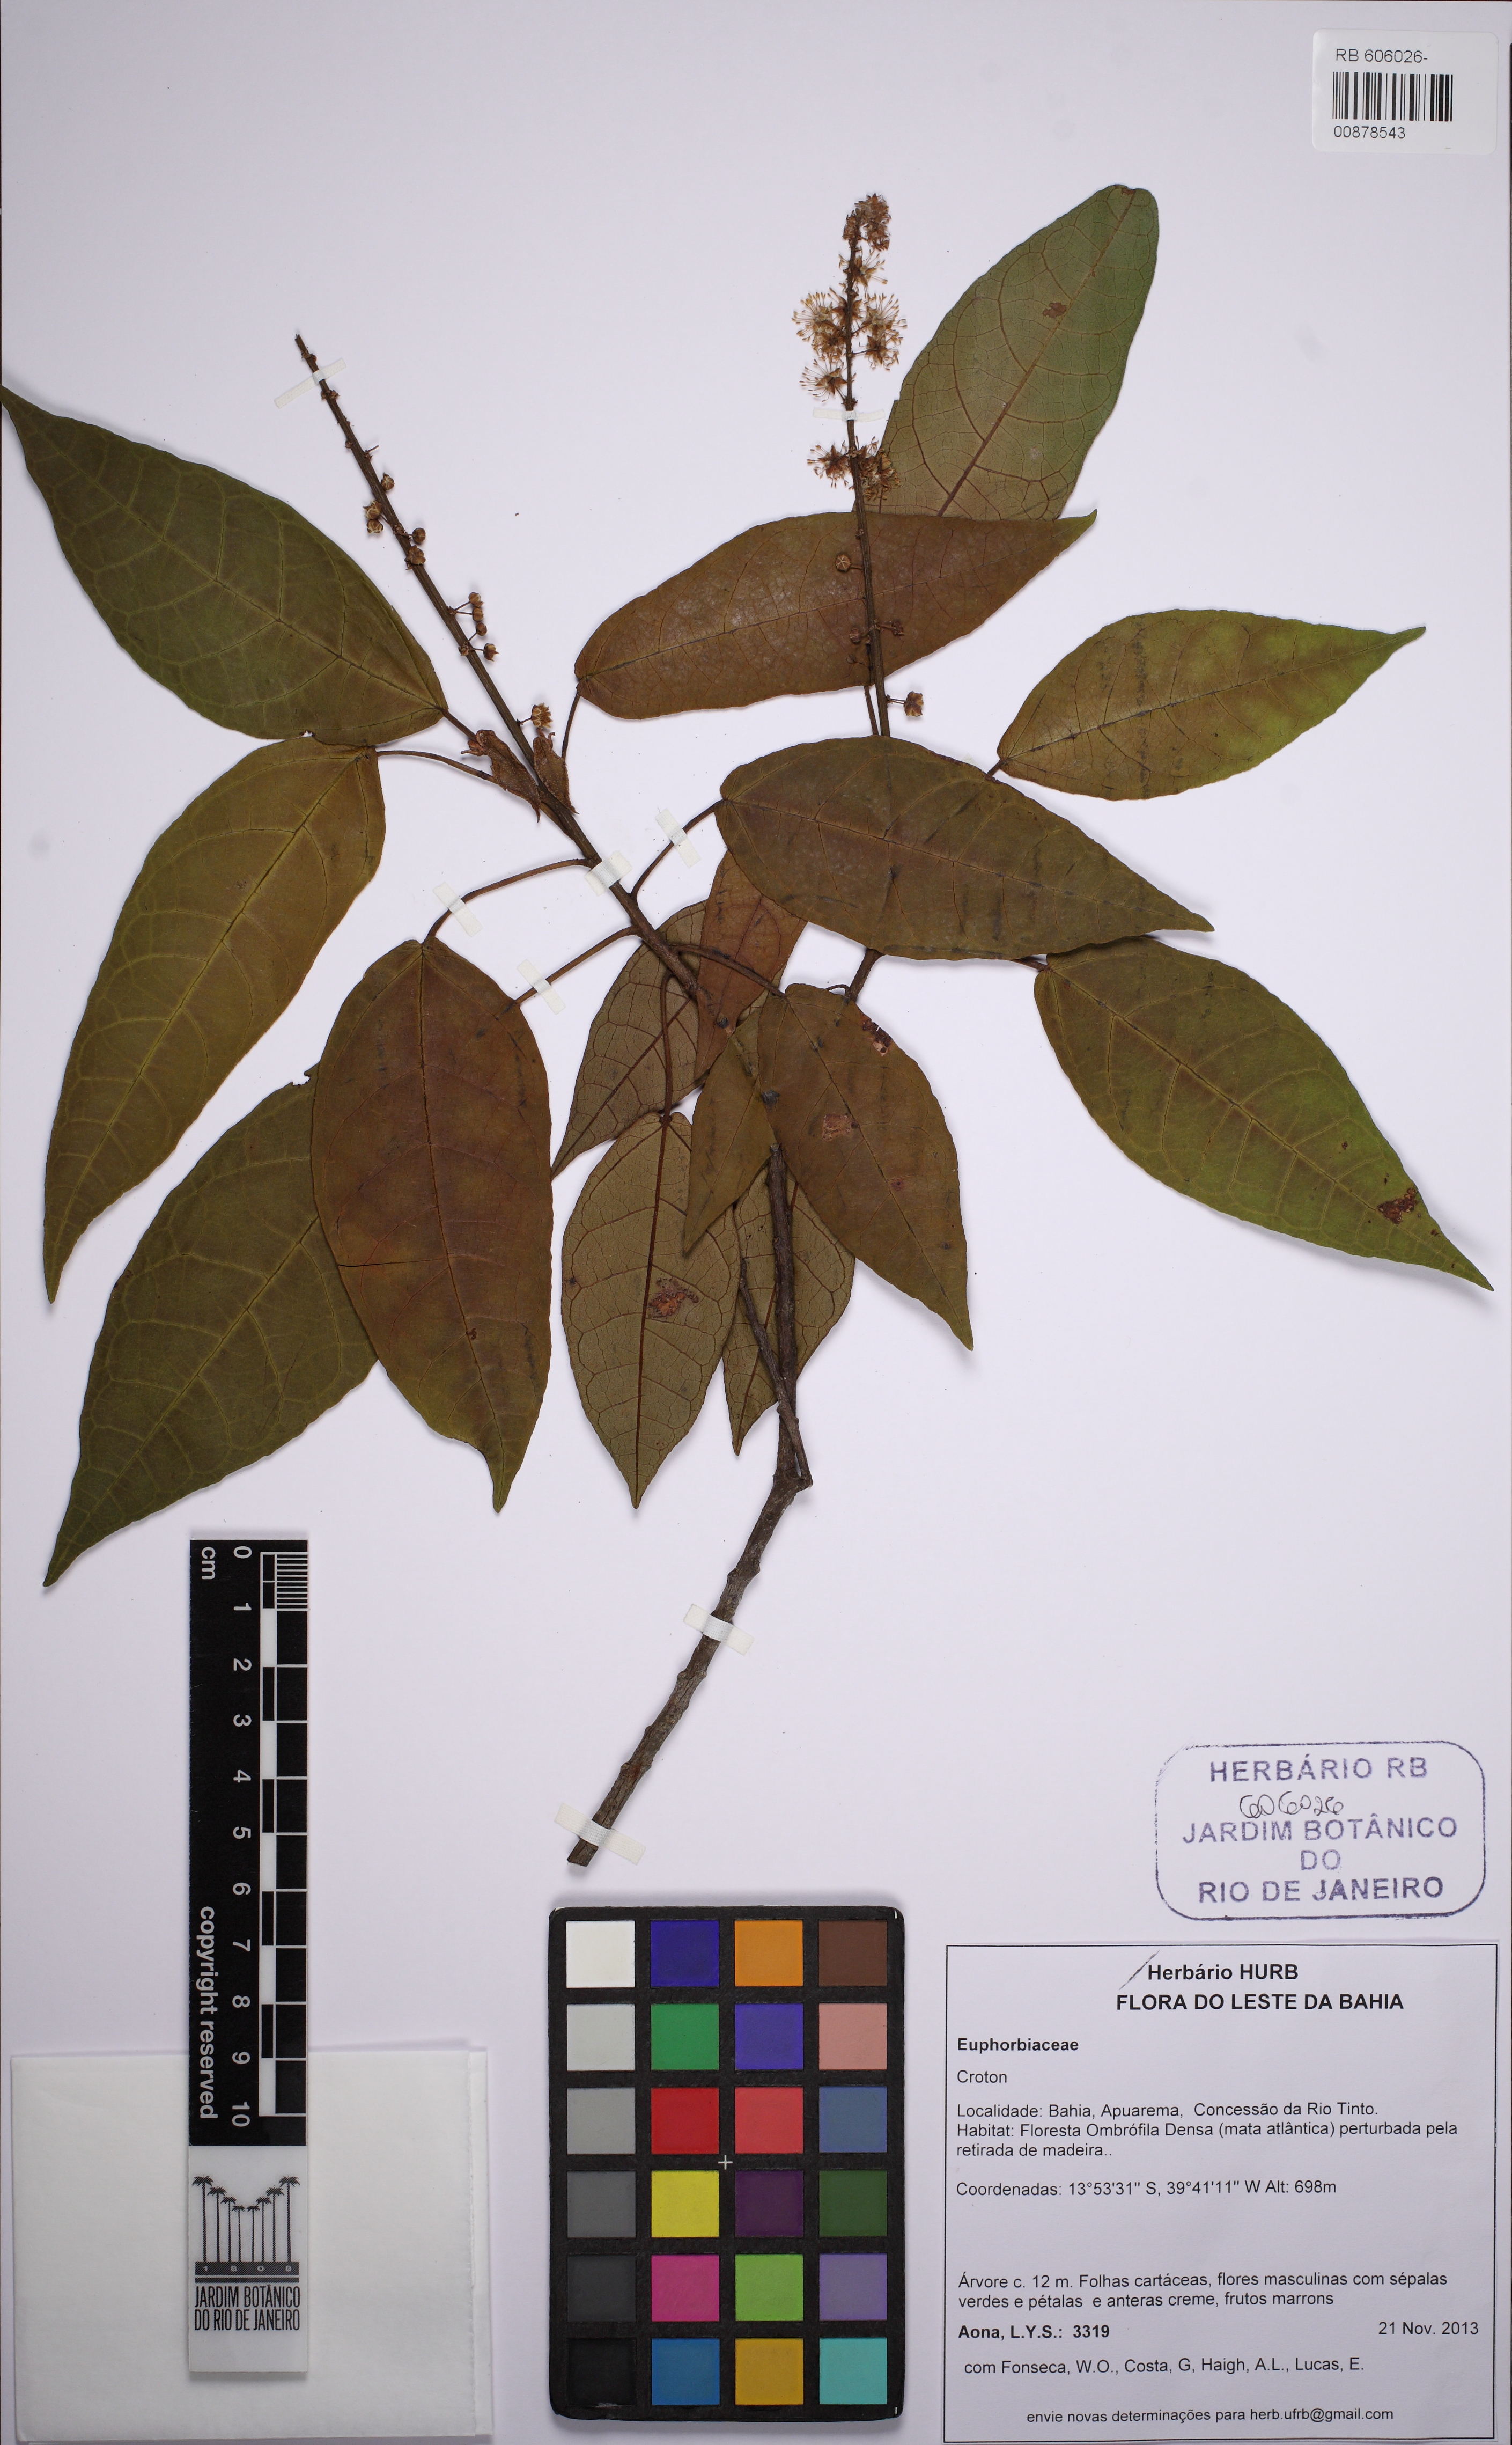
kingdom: Plantae
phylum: Tracheophyta
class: Magnoliopsida
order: Malpighiales
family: Euphorbiaceae
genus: Croton
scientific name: Croton macrobothrys
